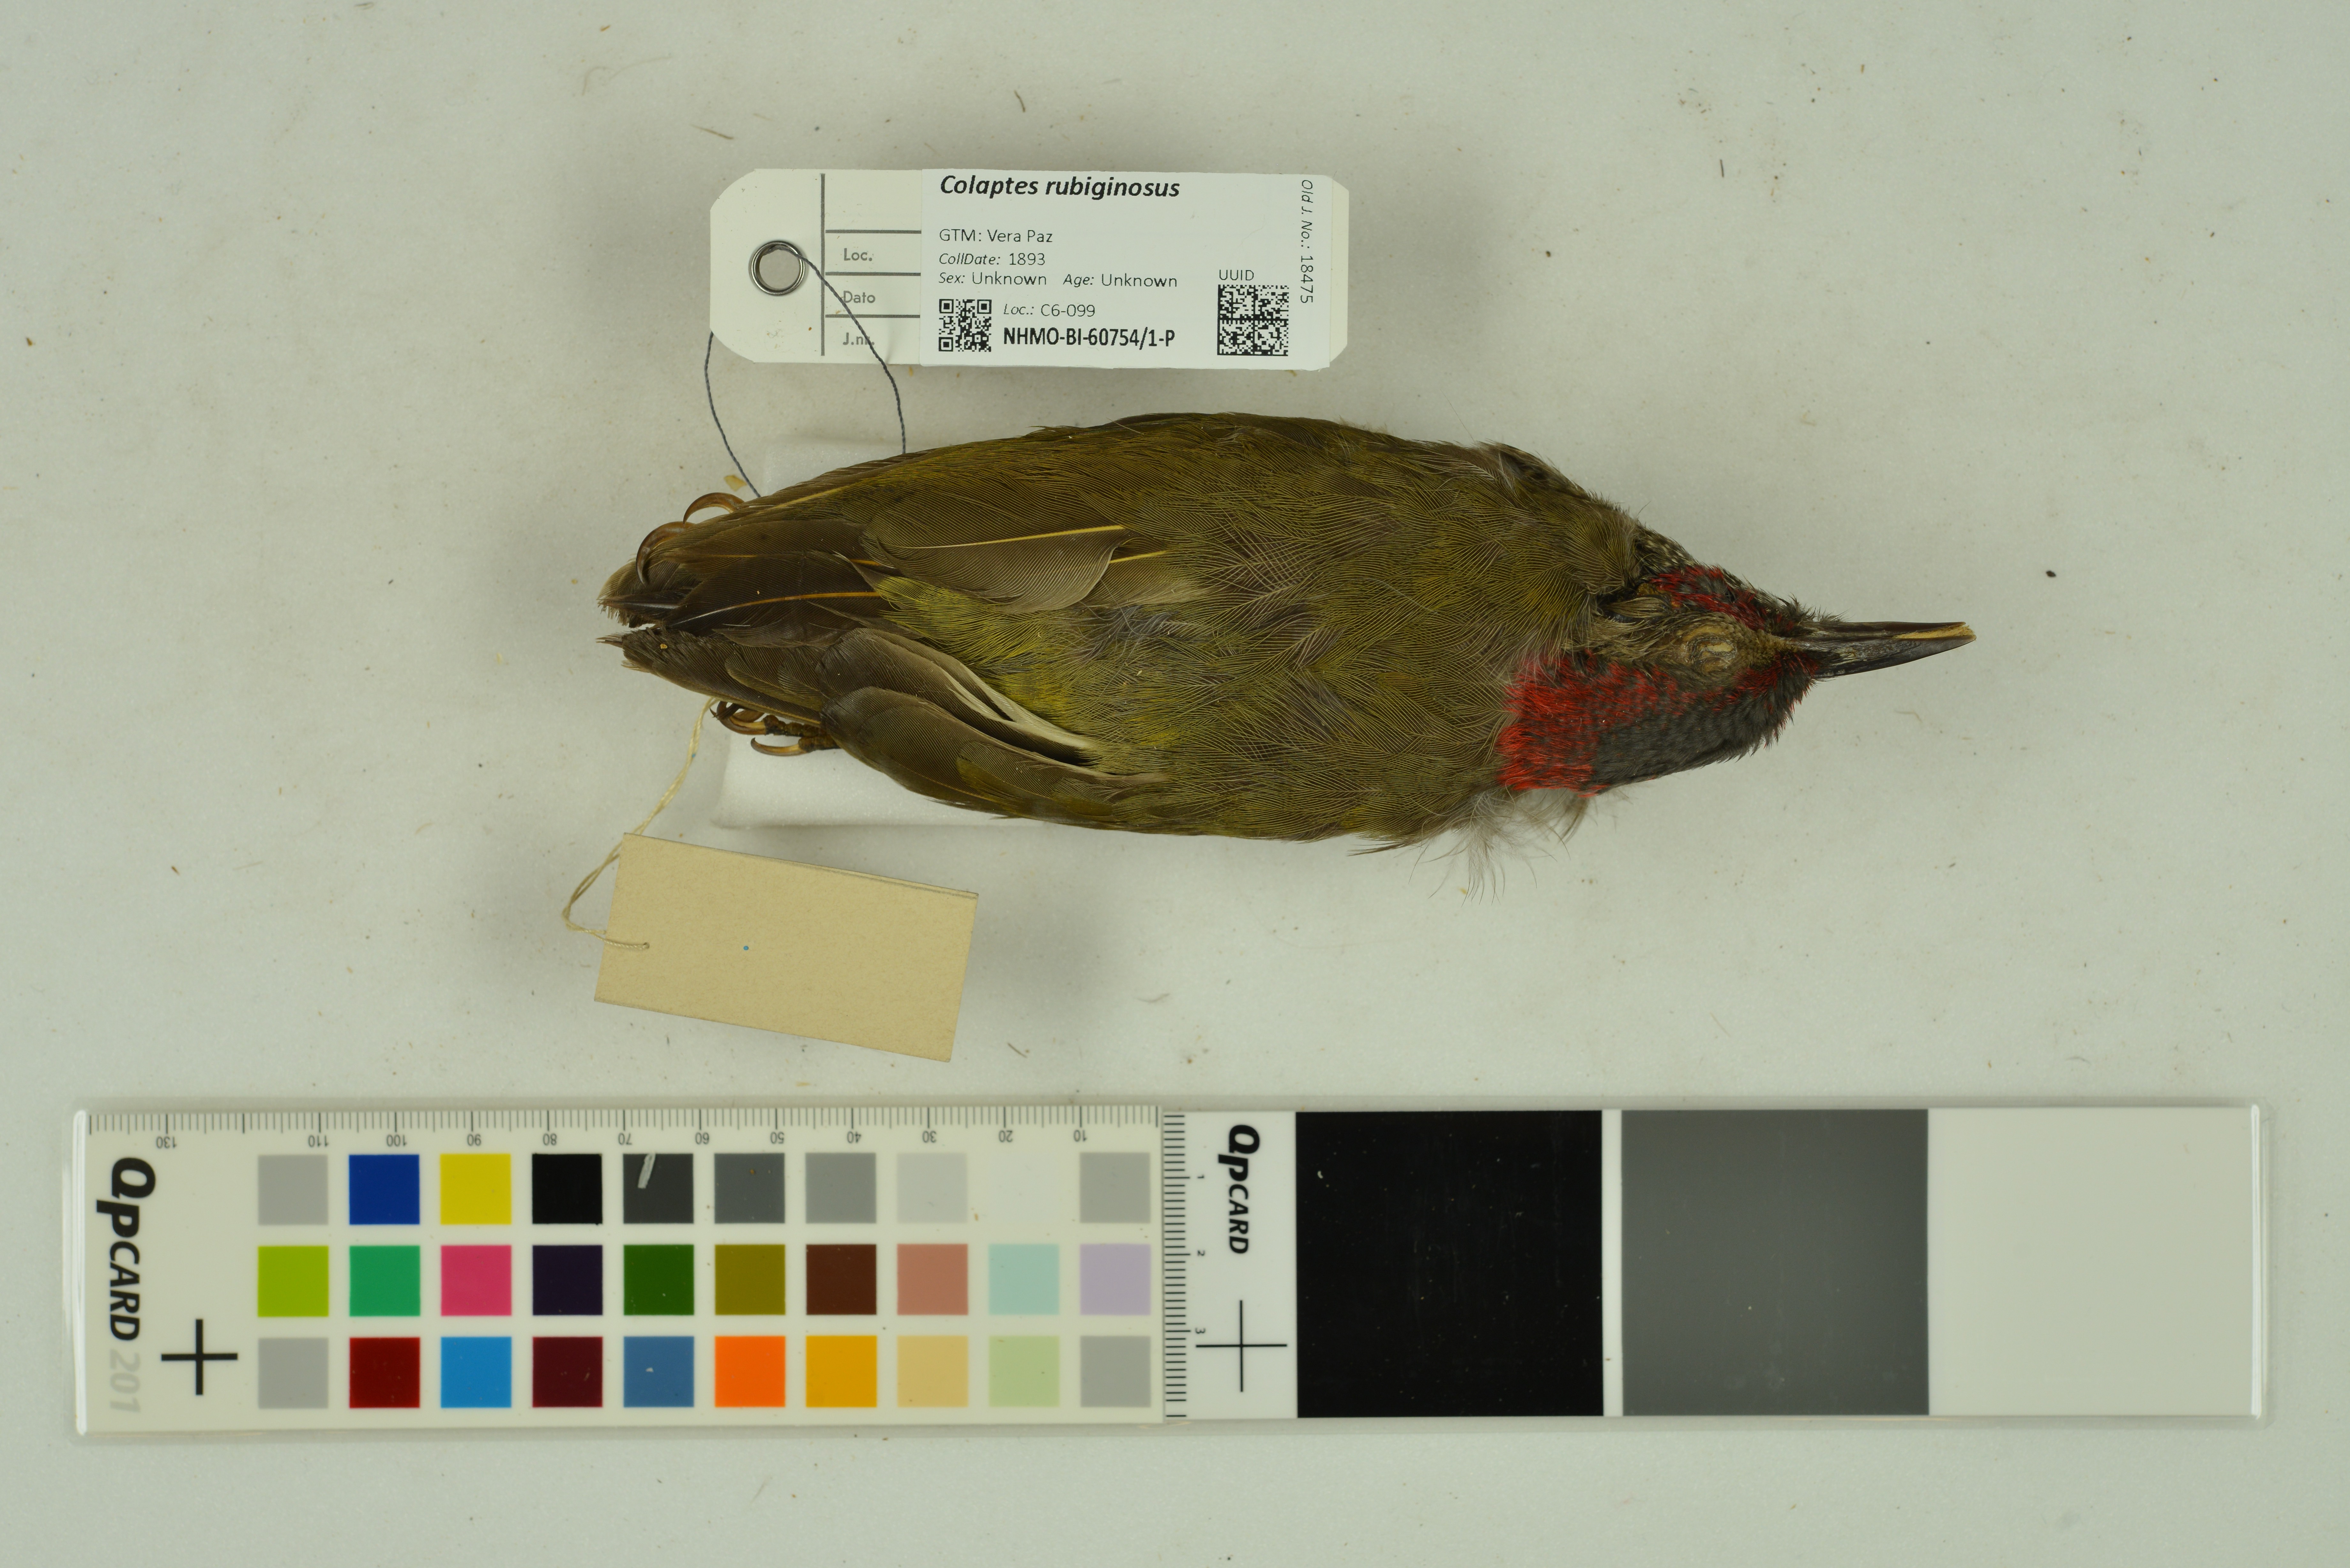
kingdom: Animalia
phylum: Chordata
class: Aves
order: Piciformes
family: Picidae
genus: Colaptes
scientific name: Colaptes rubiginosus
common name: Golden-olive woodpecker
